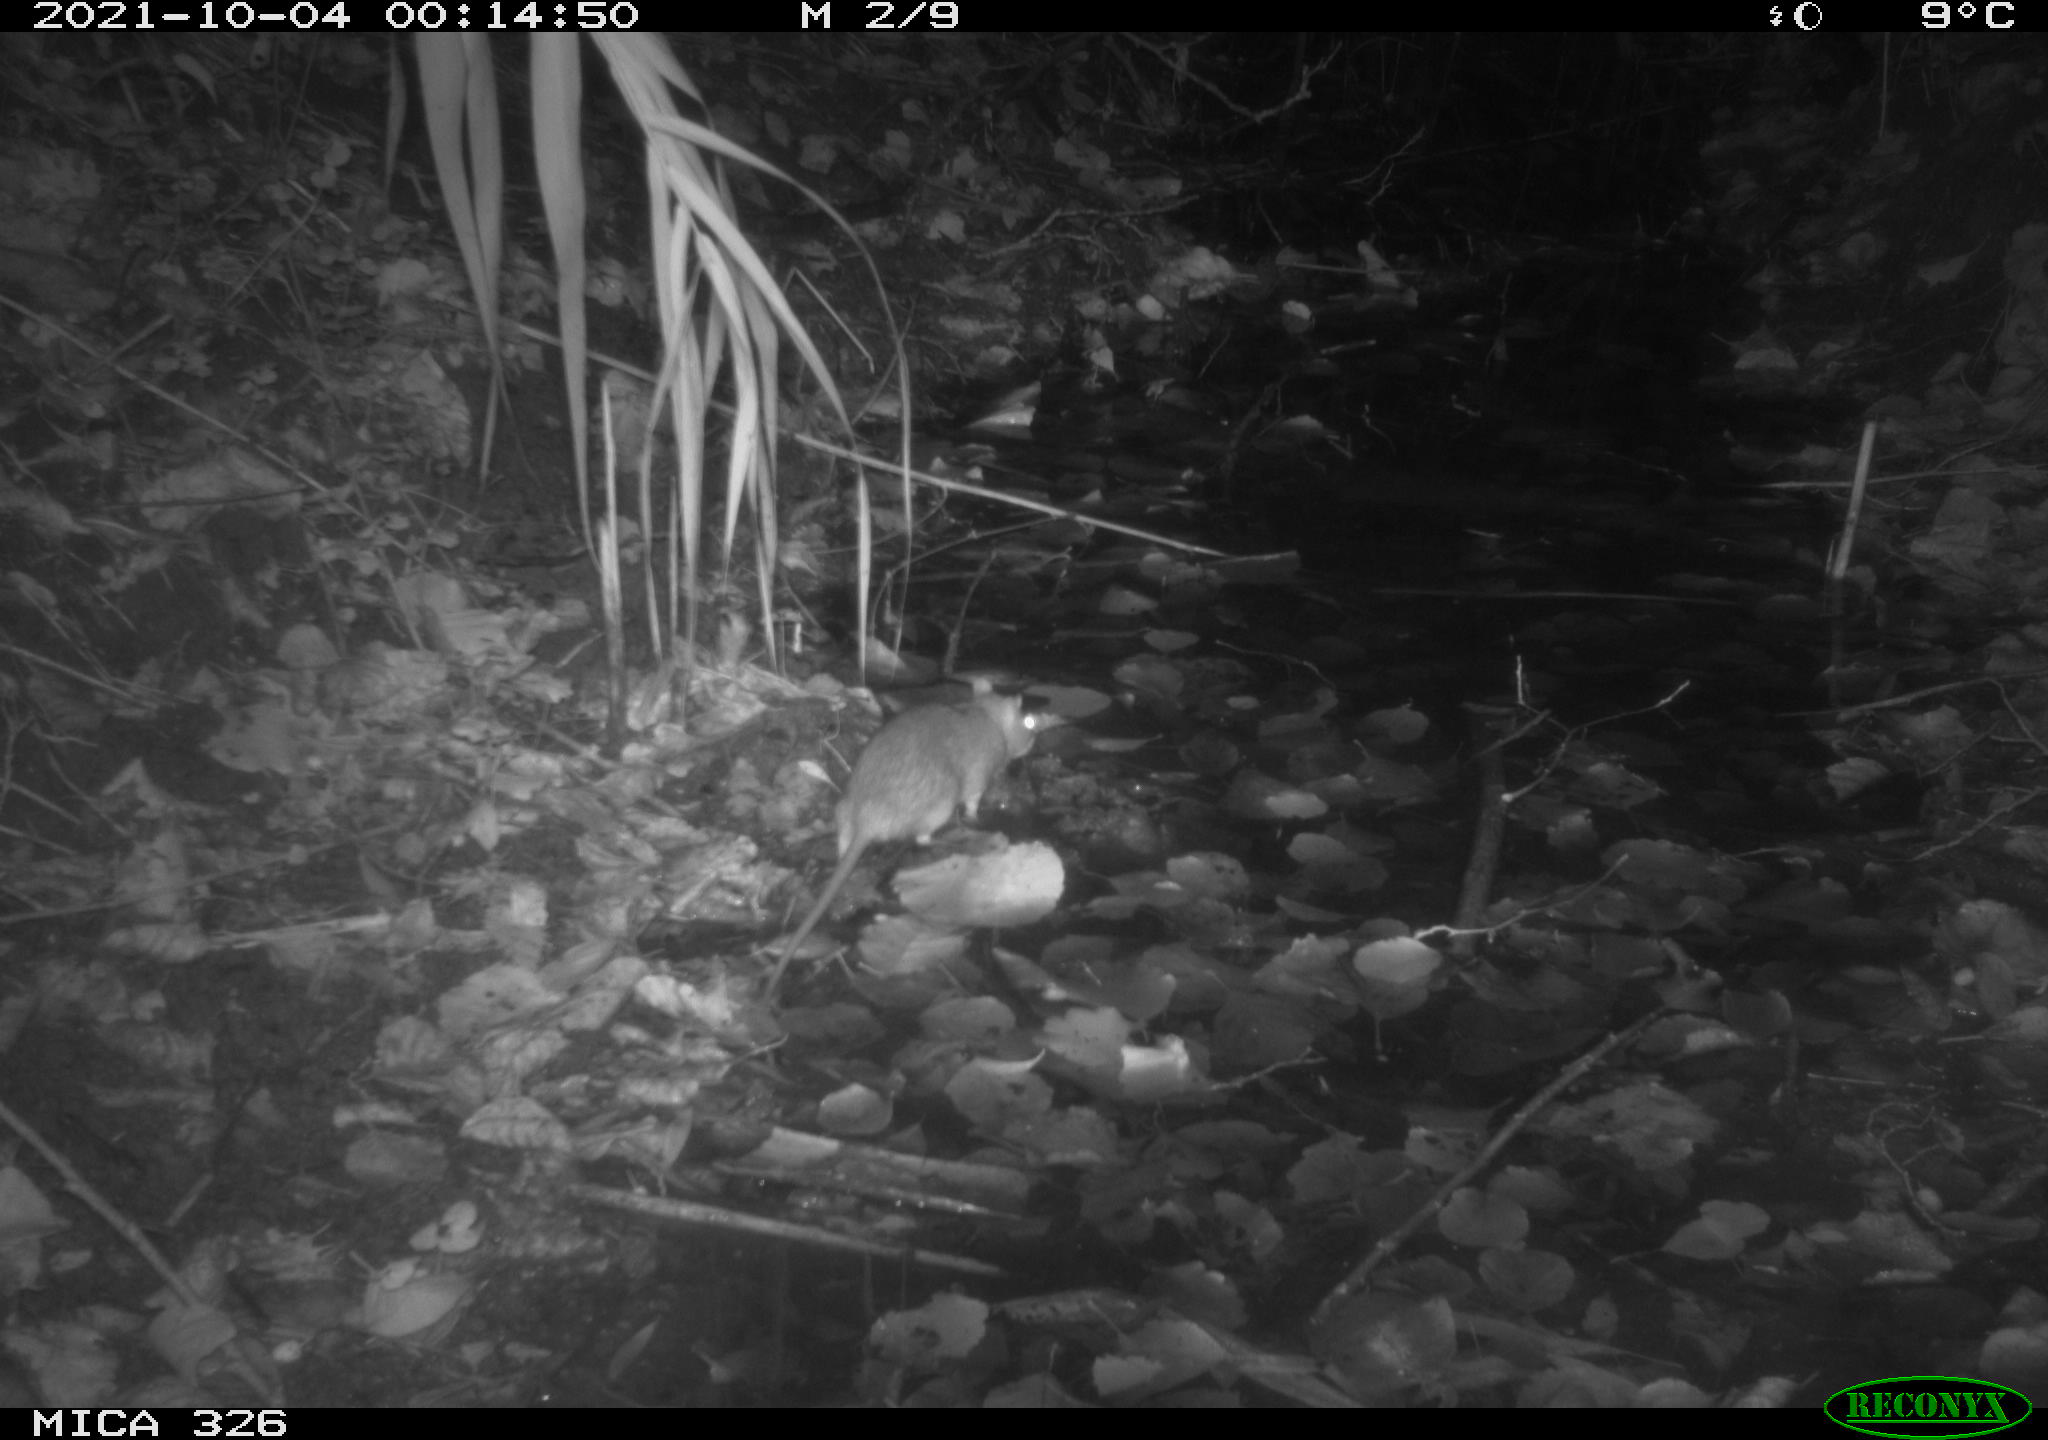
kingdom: Animalia
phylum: Chordata
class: Mammalia
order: Rodentia
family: Muridae
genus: Rattus
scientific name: Rattus norvegicus
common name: Brown rat
